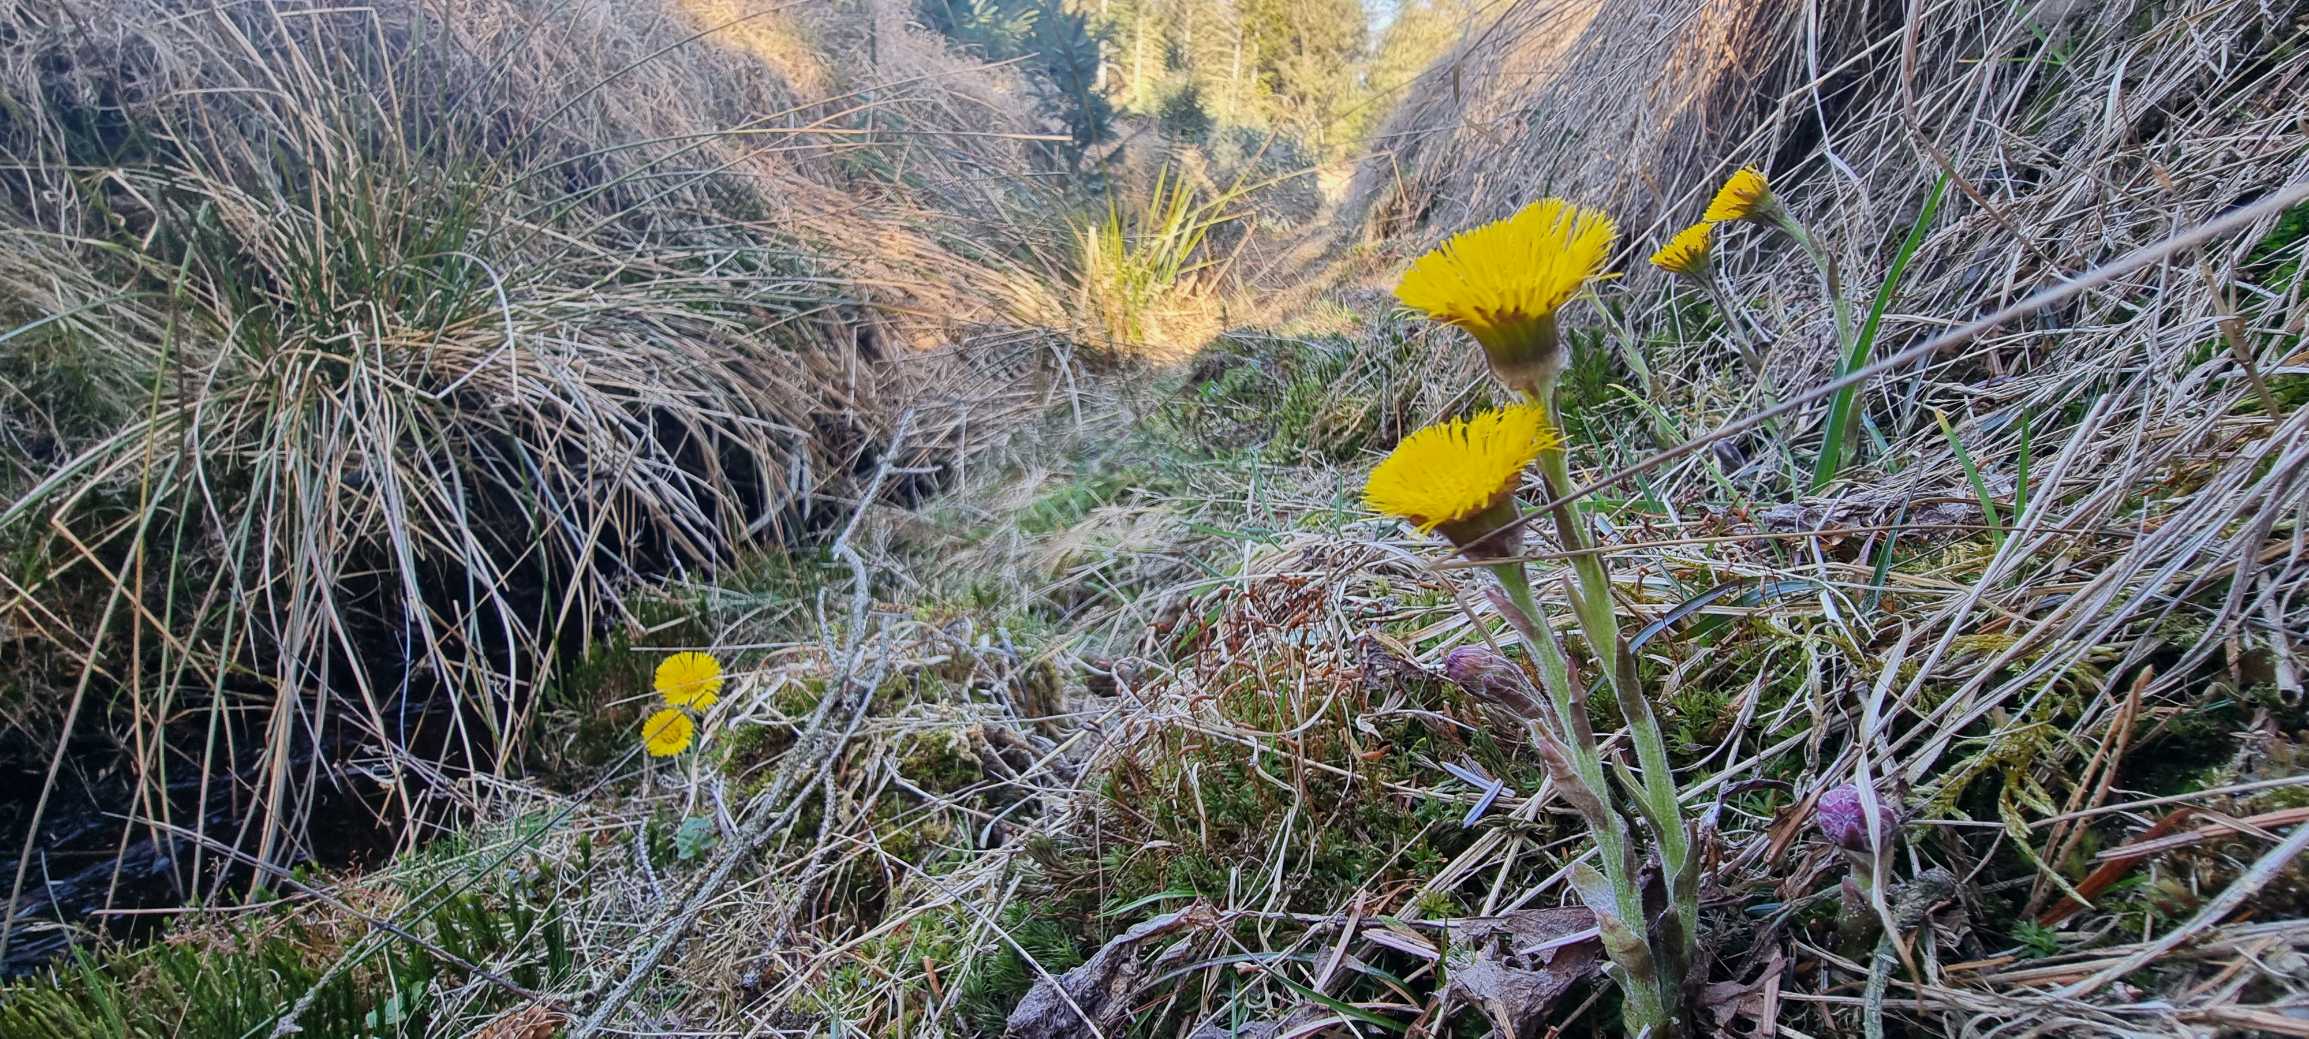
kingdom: Plantae
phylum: Tracheophyta
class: Magnoliopsida
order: Asterales
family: Asteraceae
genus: Tussilago
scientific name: Tussilago farfara
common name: Følfod
